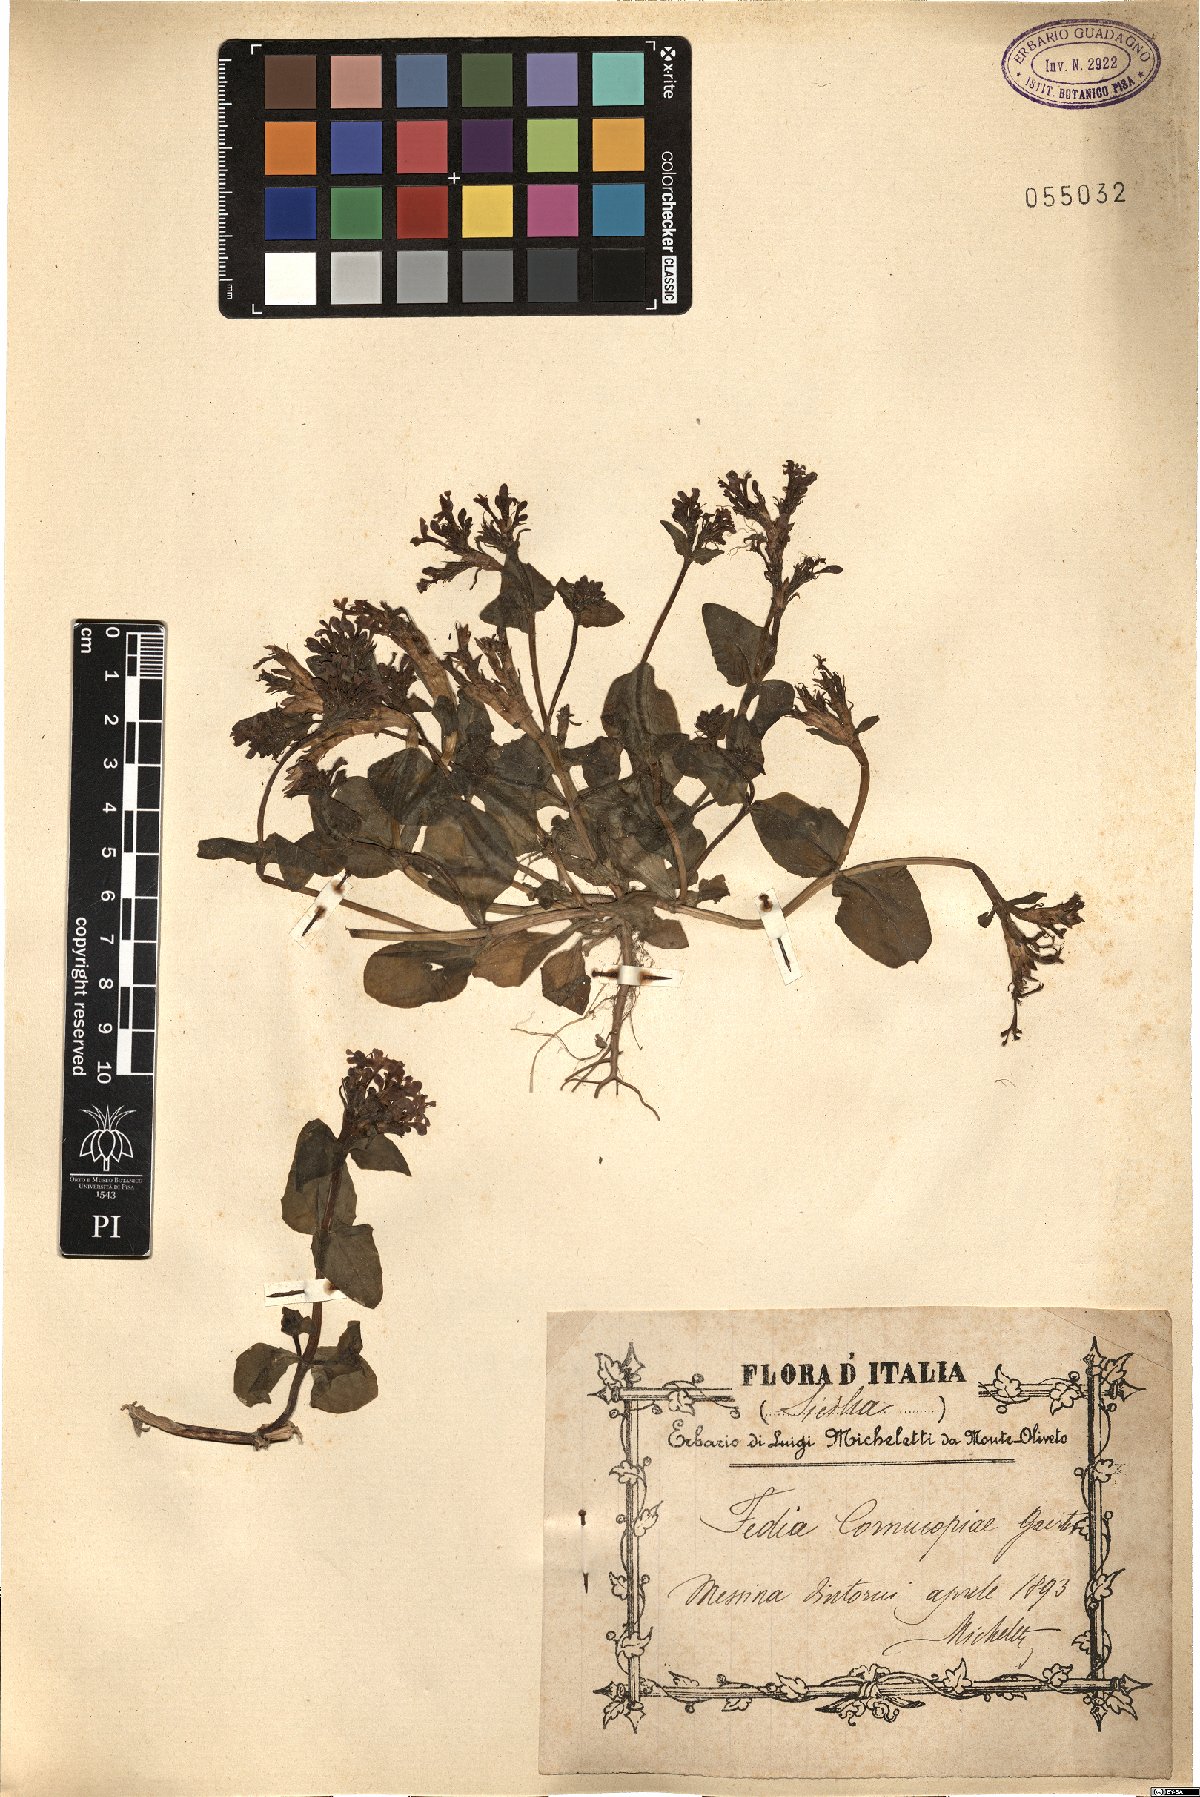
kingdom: Plantae
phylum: Tracheophyta
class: Magnoliopsida
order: Dipsacales
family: Caprifoliaceae
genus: Fedia
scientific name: Fedia cornucopiae
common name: Horn-of-plenty
